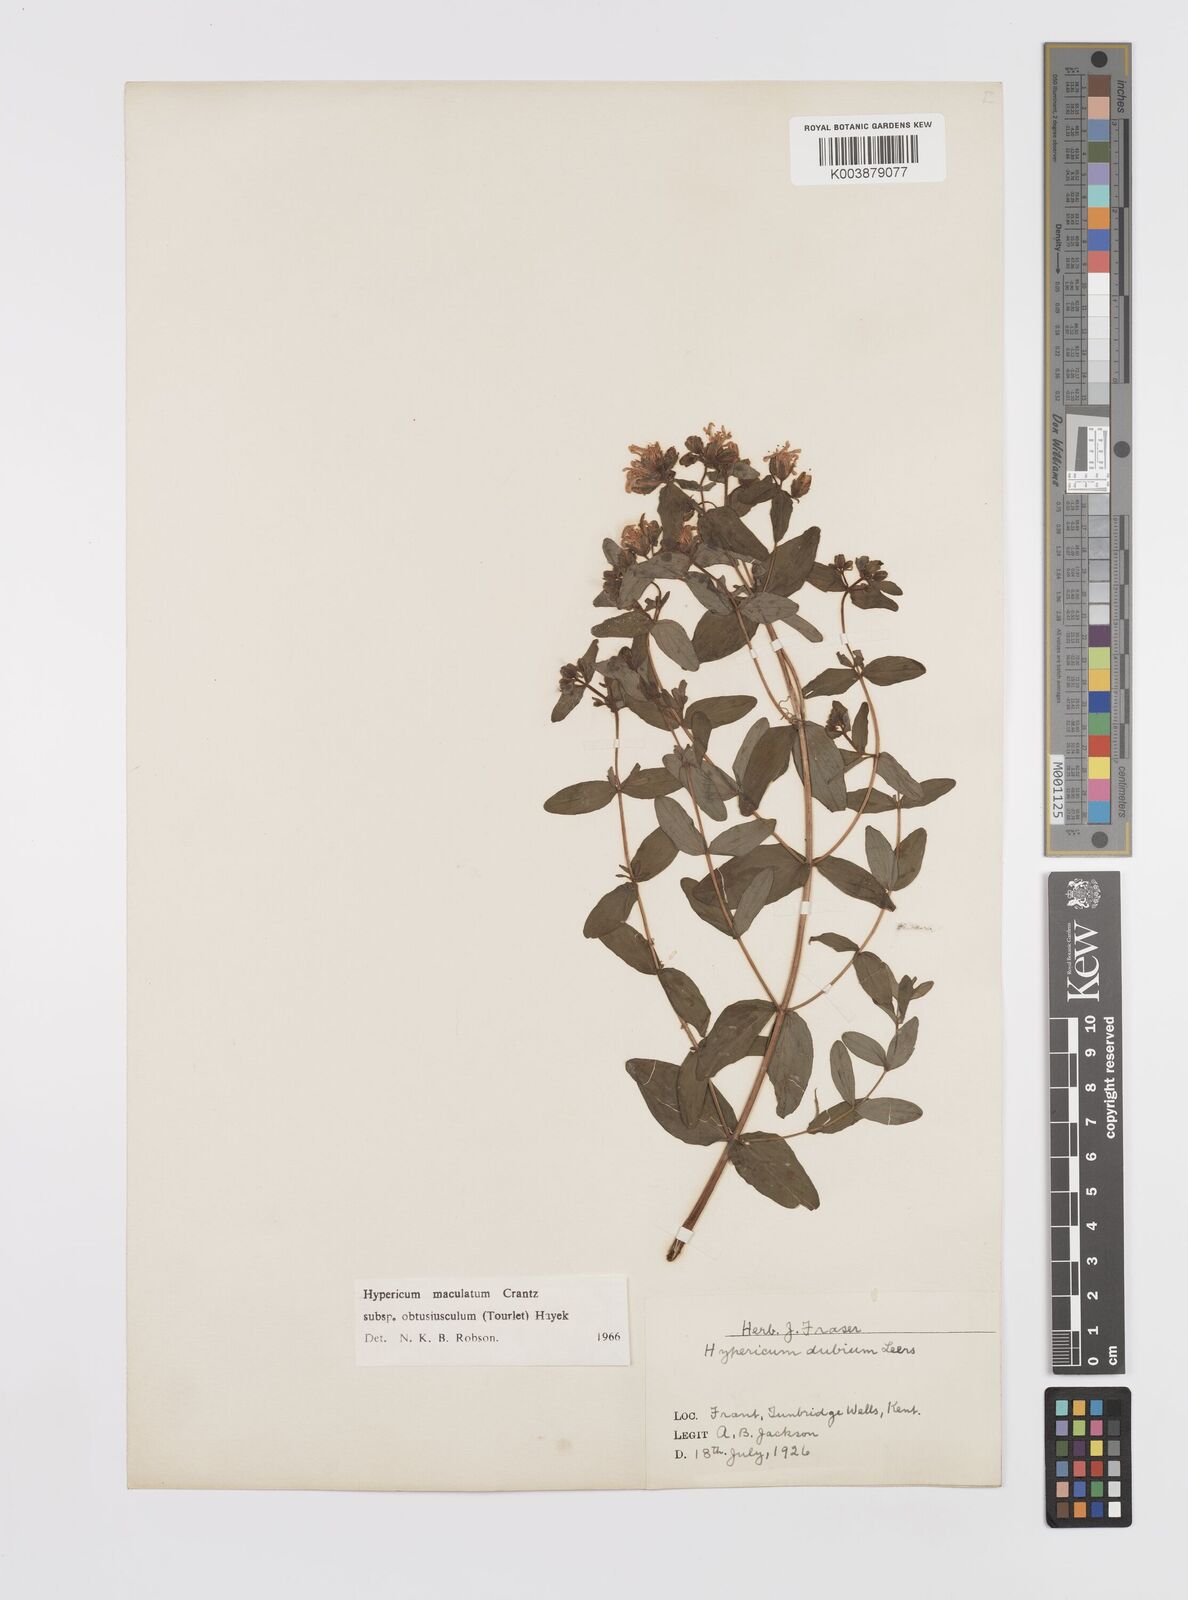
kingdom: Plantae
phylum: Tracheophyta
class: Magnoliopsida
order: Malpighiales
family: Hypericaceae
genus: Hypericum
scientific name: Hypericum dubium
